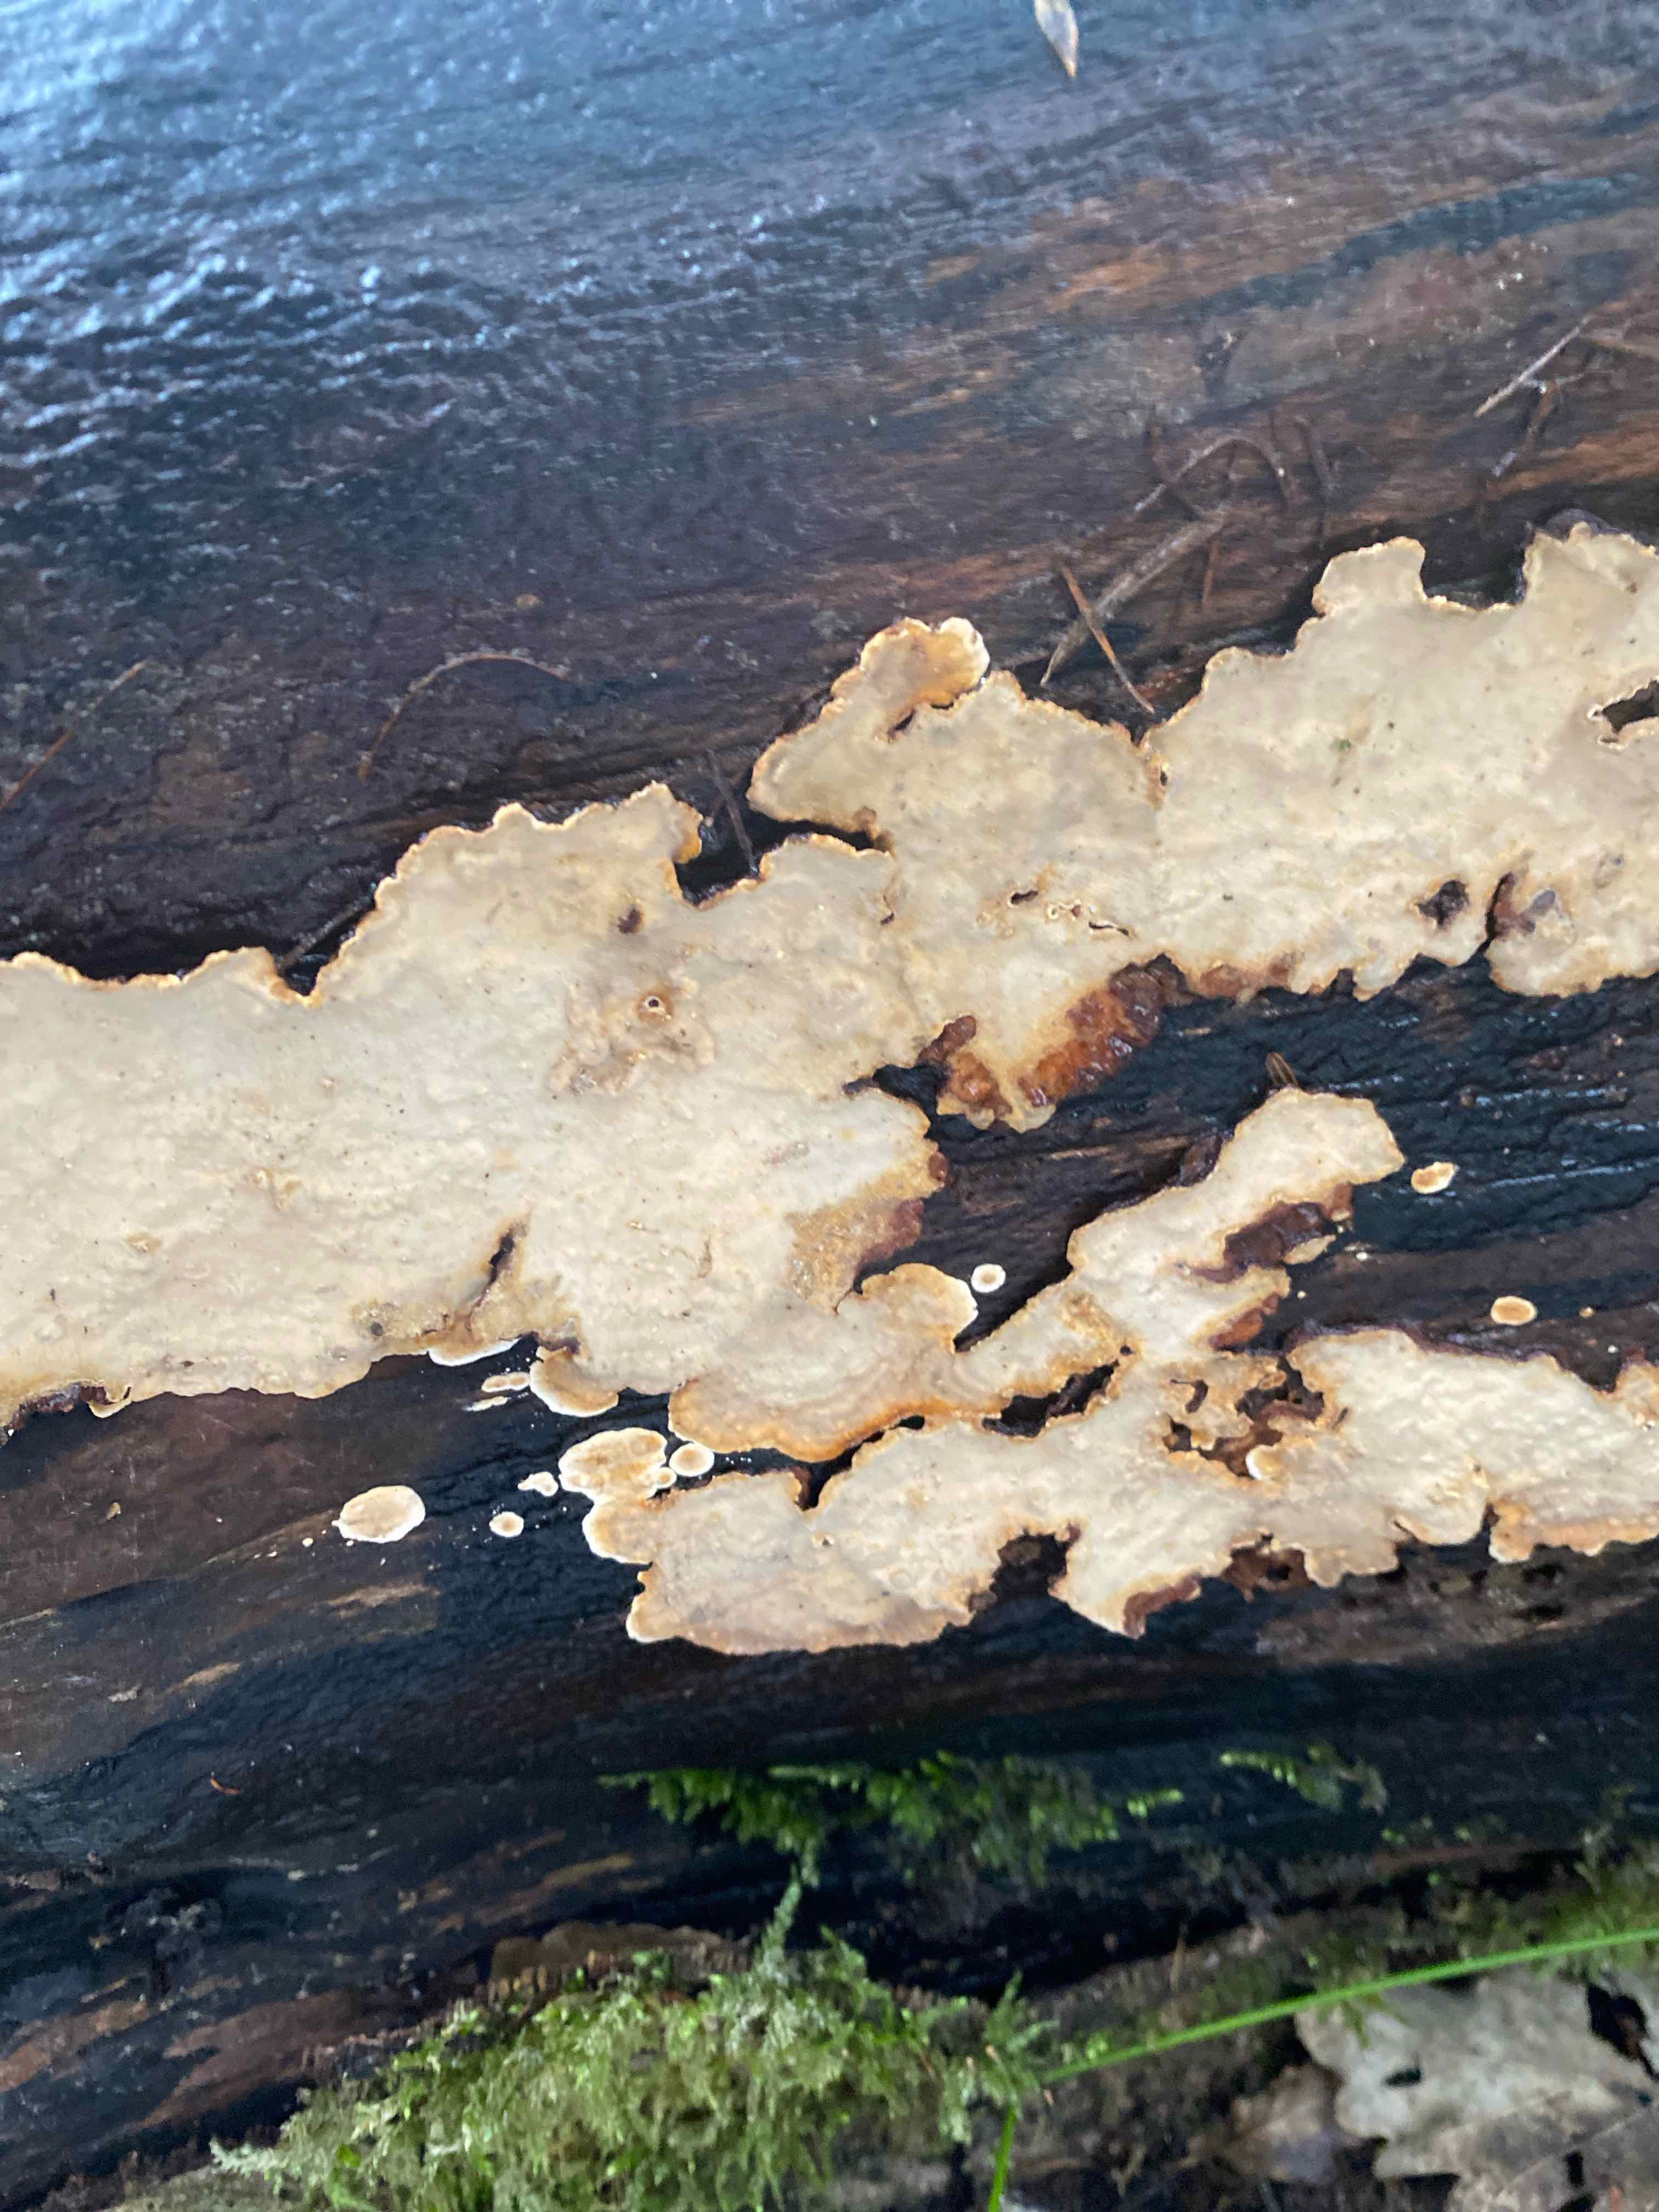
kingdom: Fungi
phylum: Basidiomycota
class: Agaricomycetes
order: Russulales
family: Stereaceae
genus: Stereum
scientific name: Stereum rugosum
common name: rynket lædersvamp
